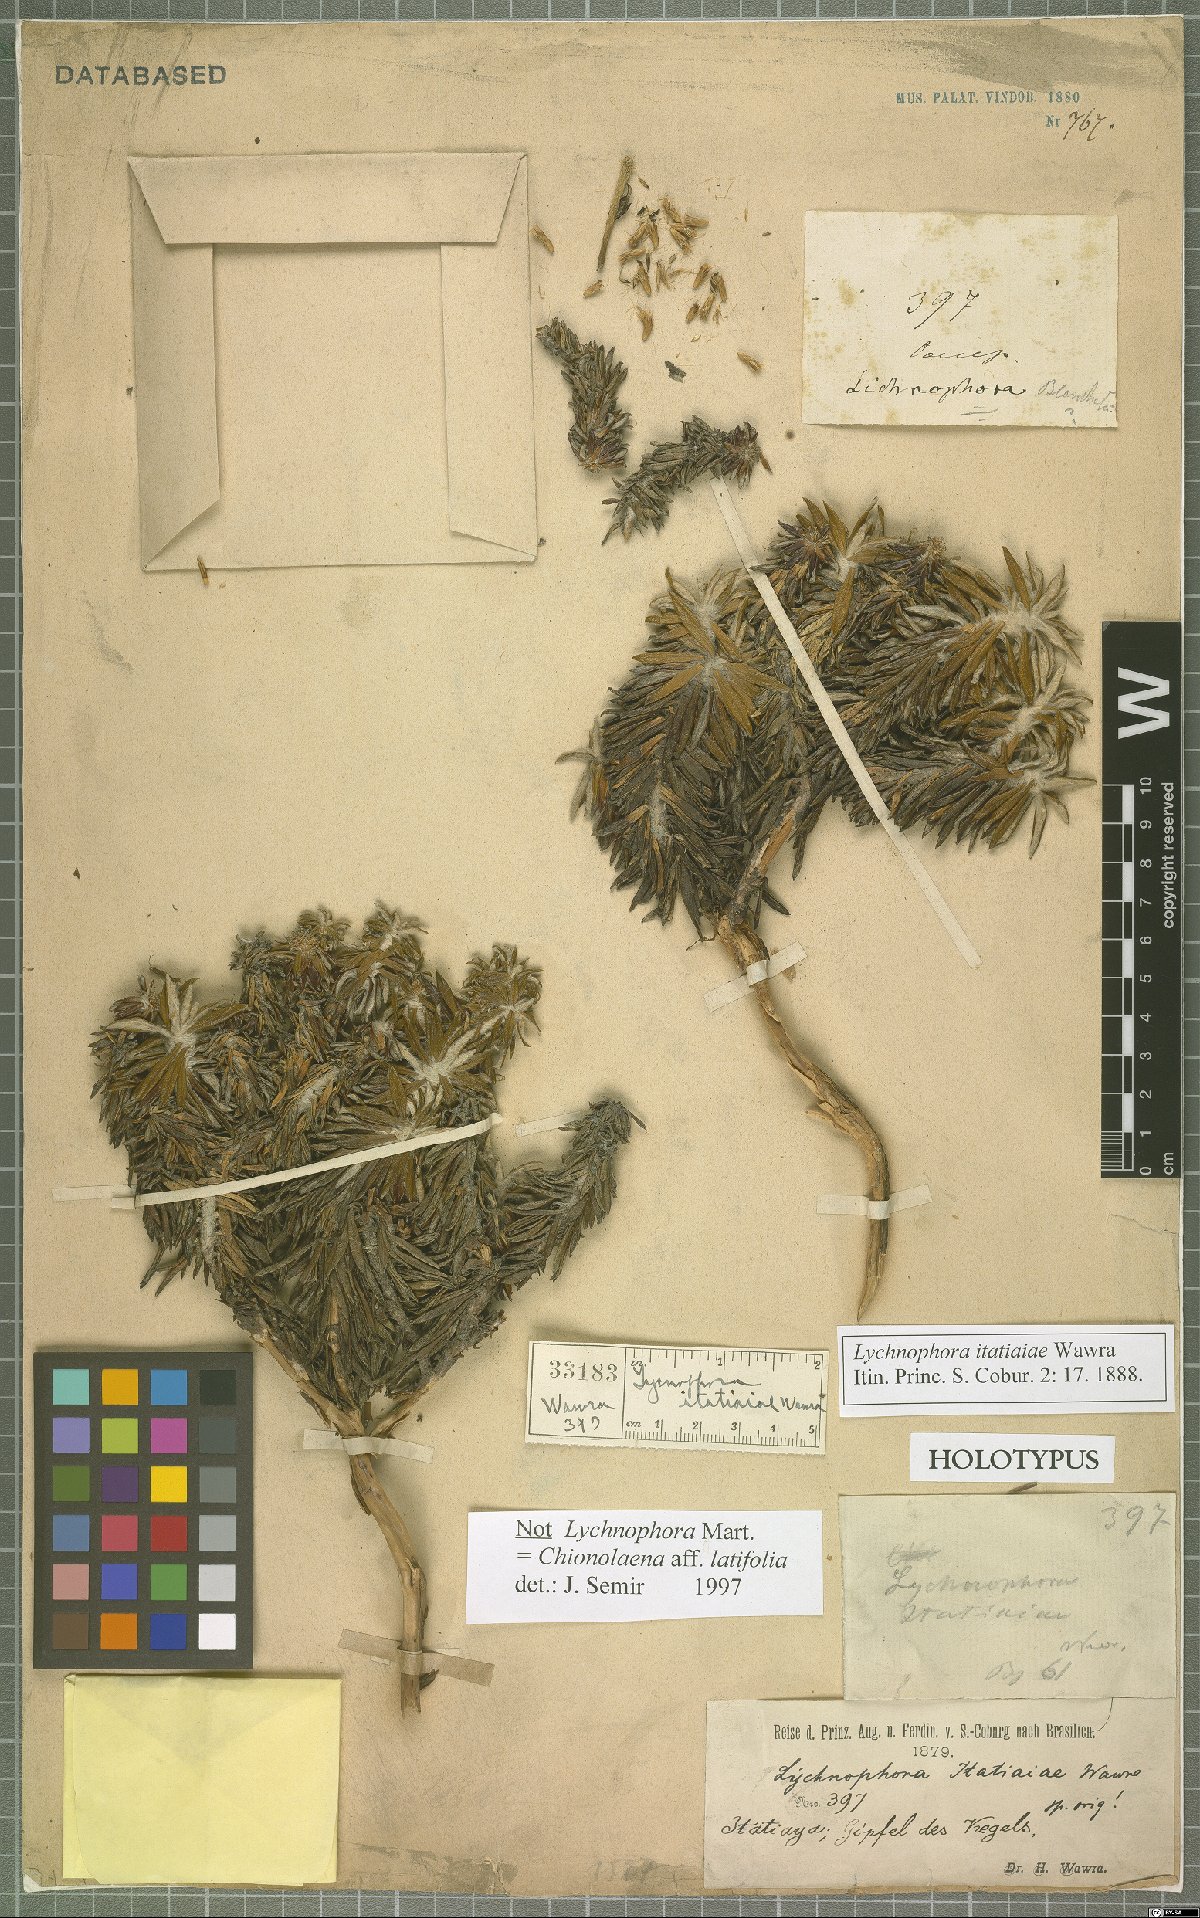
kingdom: Plantae
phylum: Tracheophyta
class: Magnoliopsida
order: Asterales
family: Asteraceae
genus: Chionolaena
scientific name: Chionolaena latifolia
